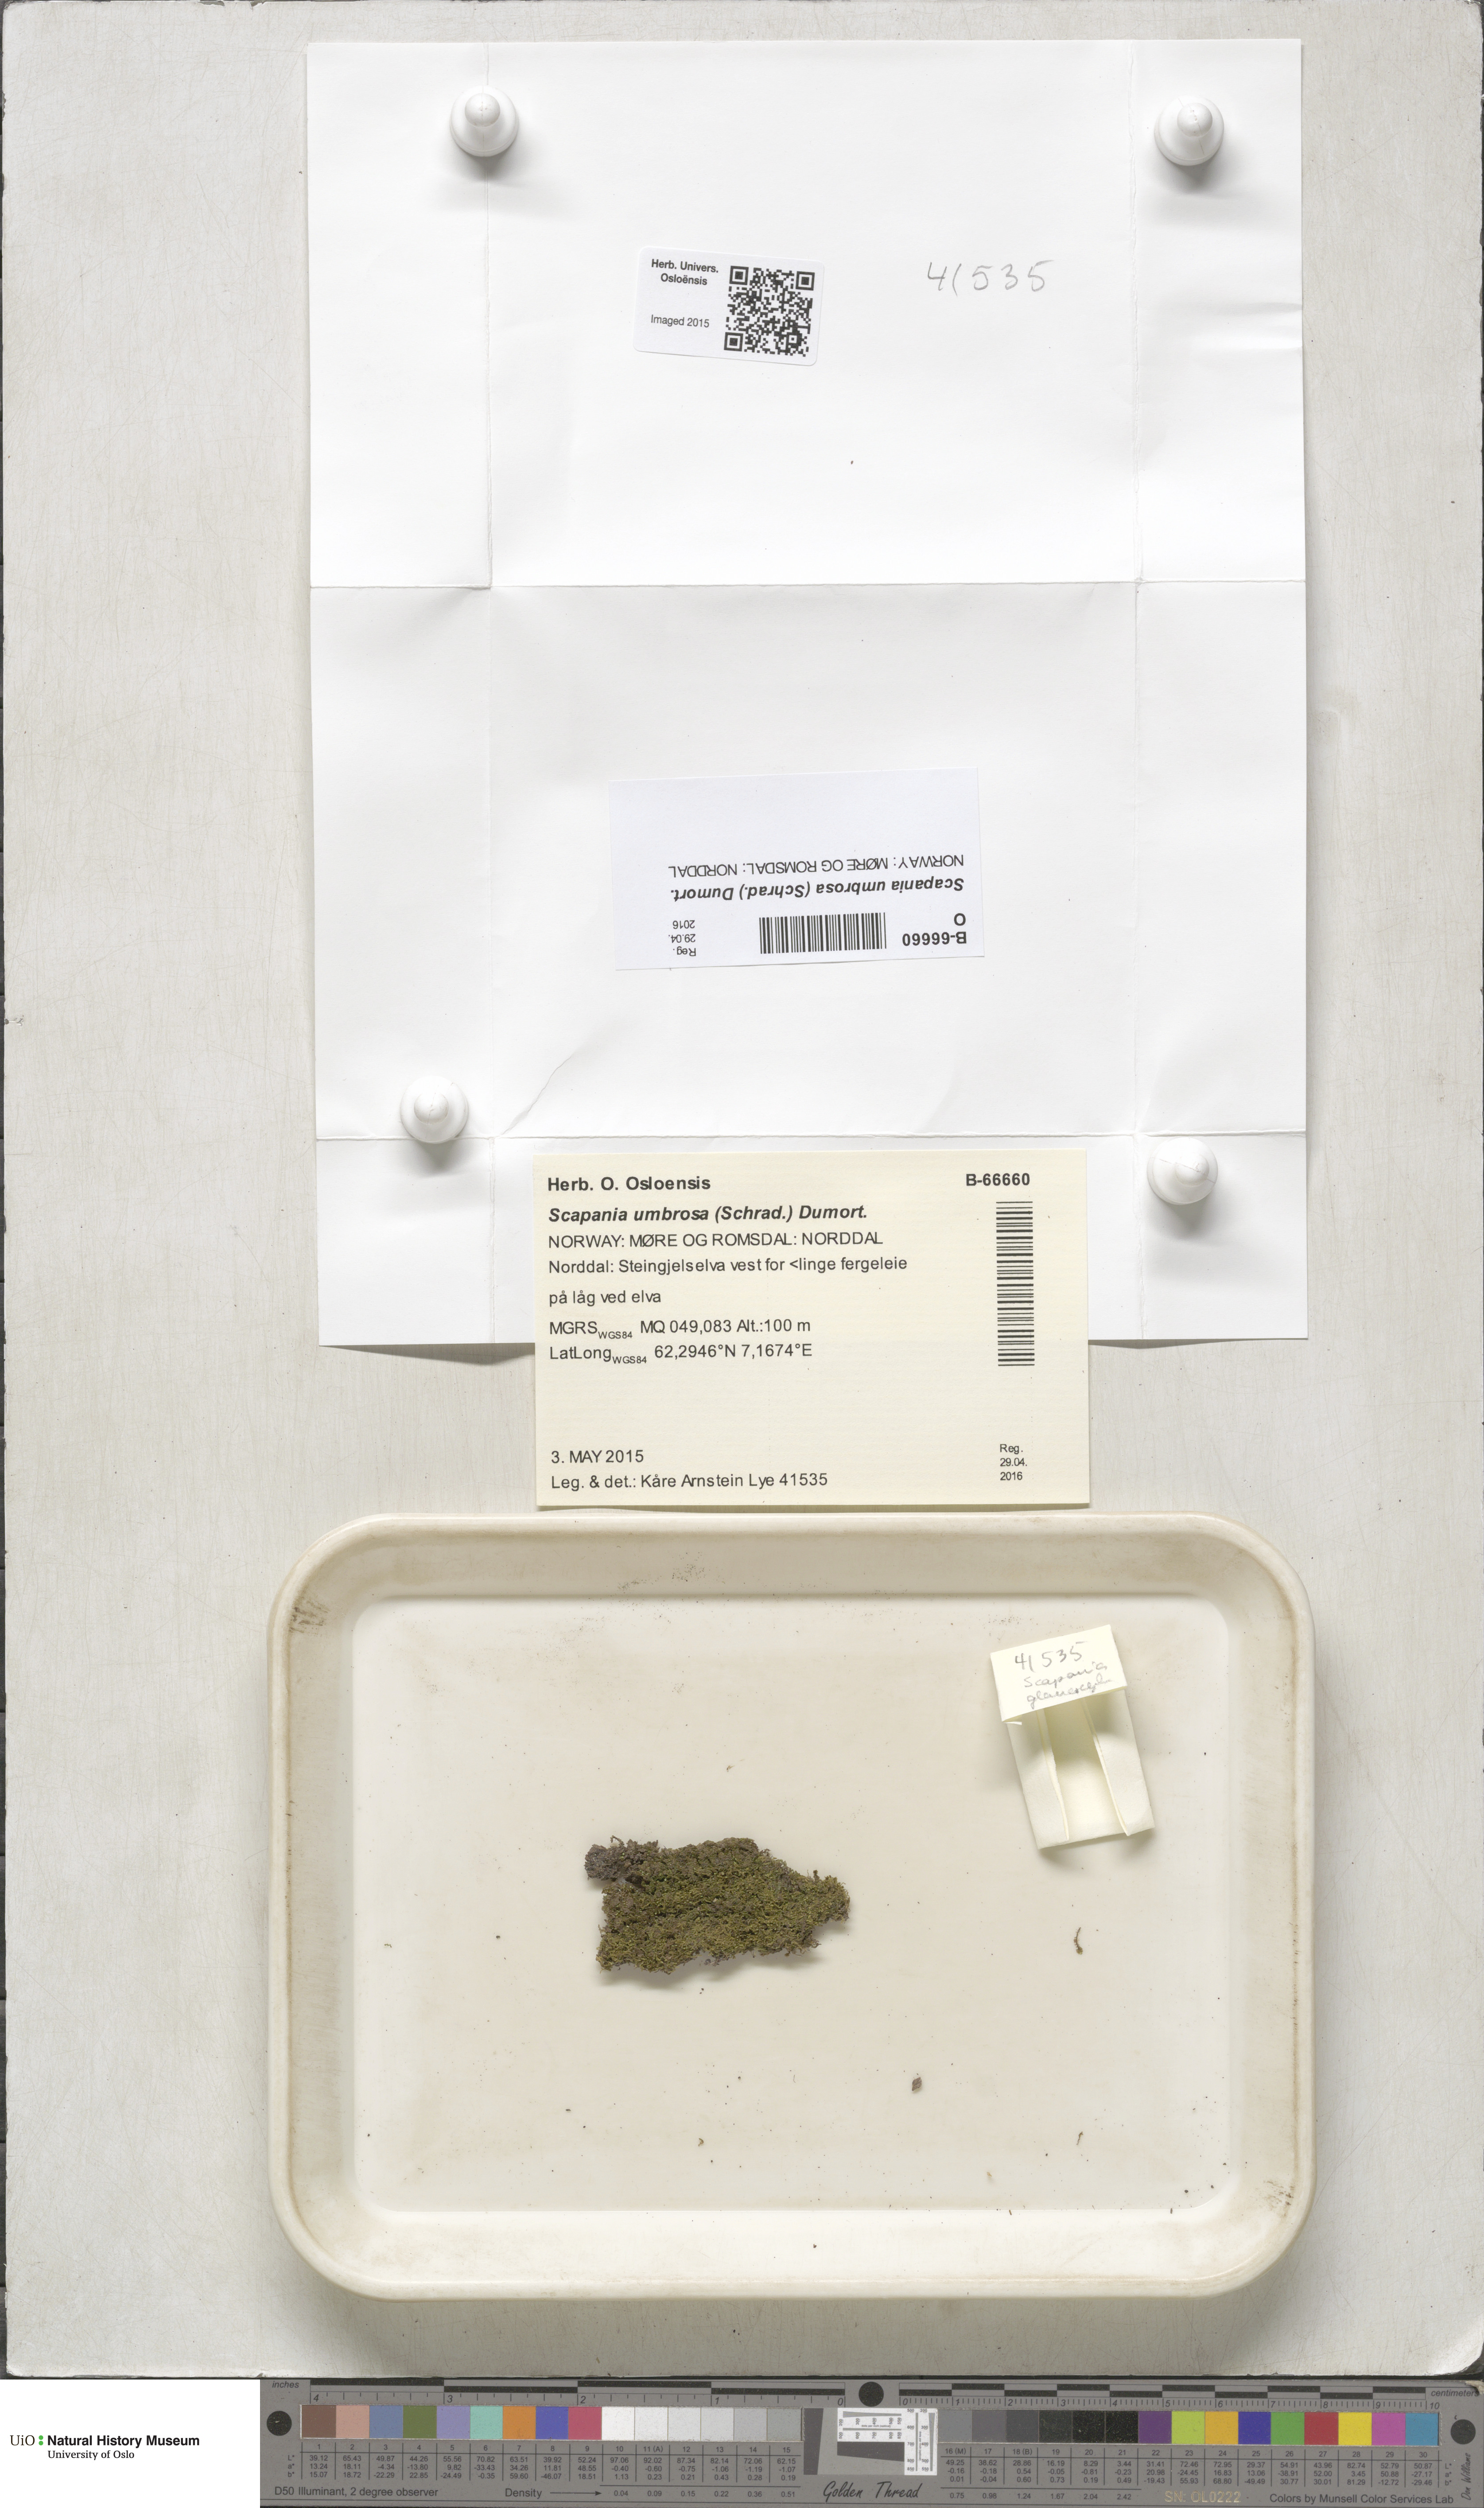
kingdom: Plantae
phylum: Marchantiophyta
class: Jungermanniopsida
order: Jungermanniales
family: Scapaniaceae
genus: Scapania
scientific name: Scapania umbrosa
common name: Shady earwort
